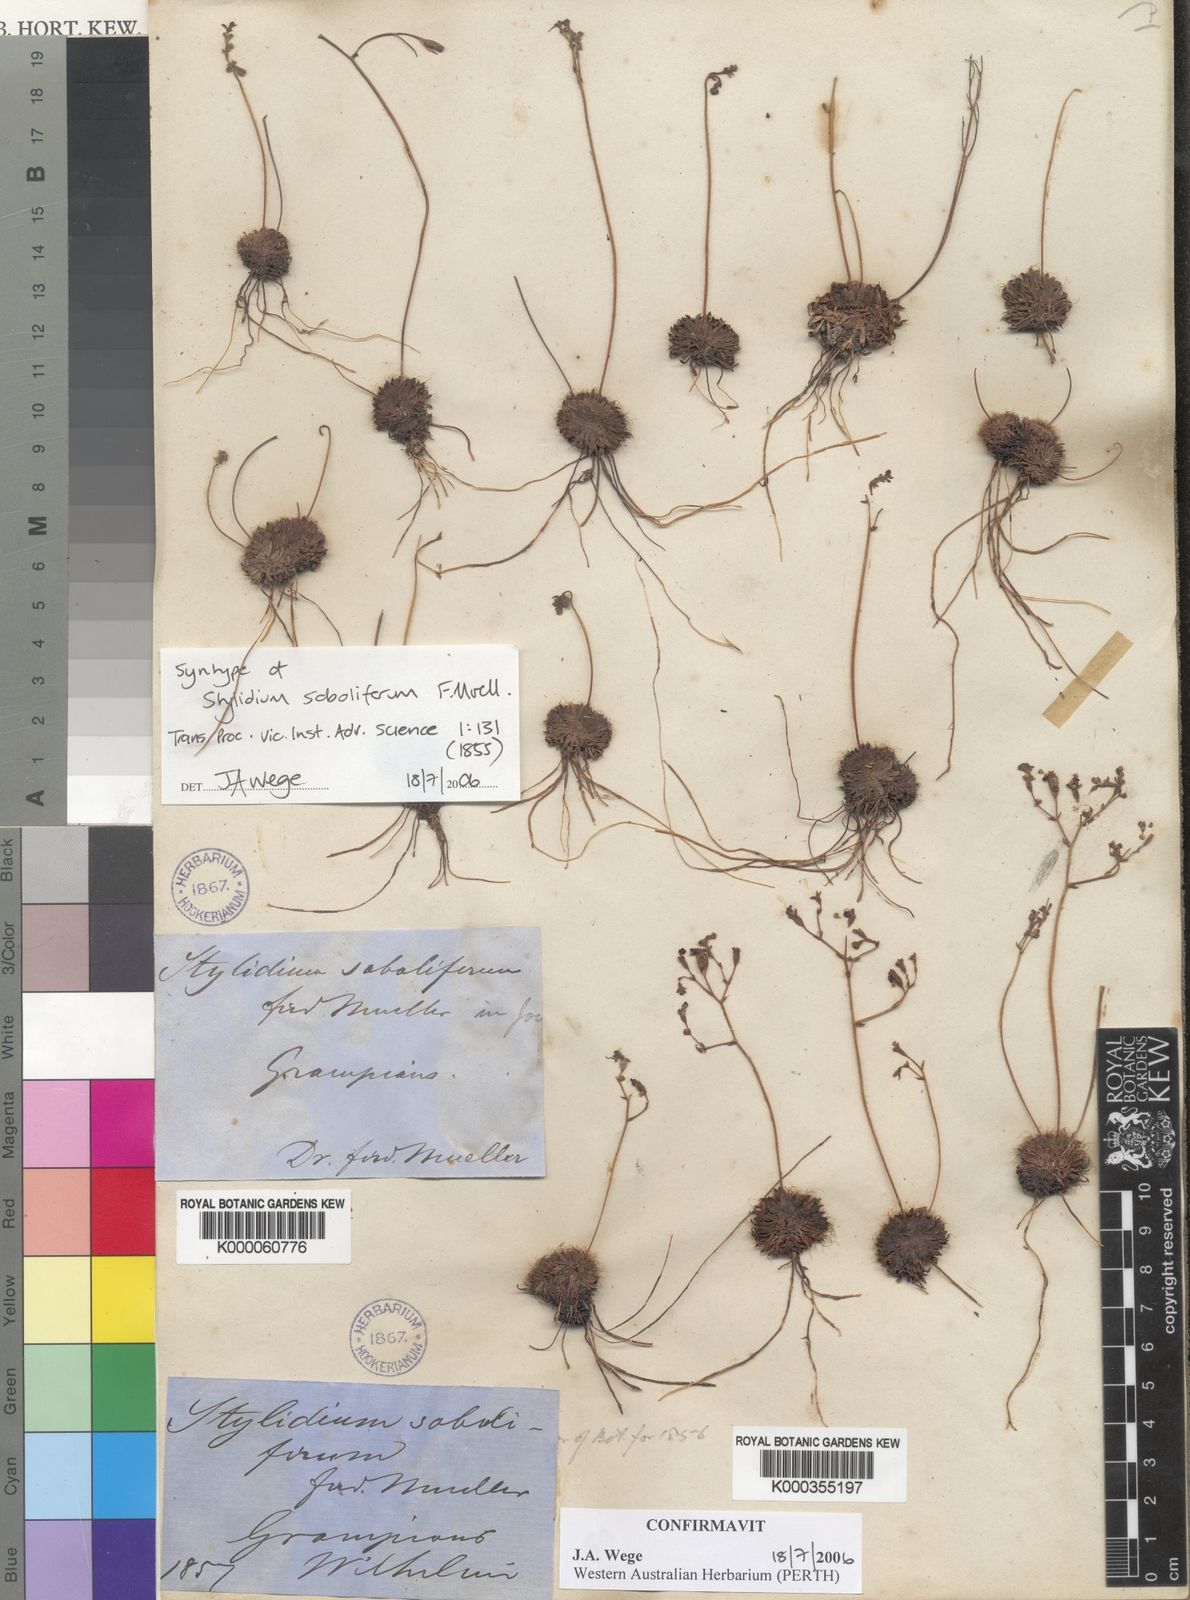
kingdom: Plantae
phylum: Tracheophyta
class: Magnoliopsida
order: Asterales
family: Stylidiaceae
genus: Stylidium
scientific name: Stylidium soboliferum
